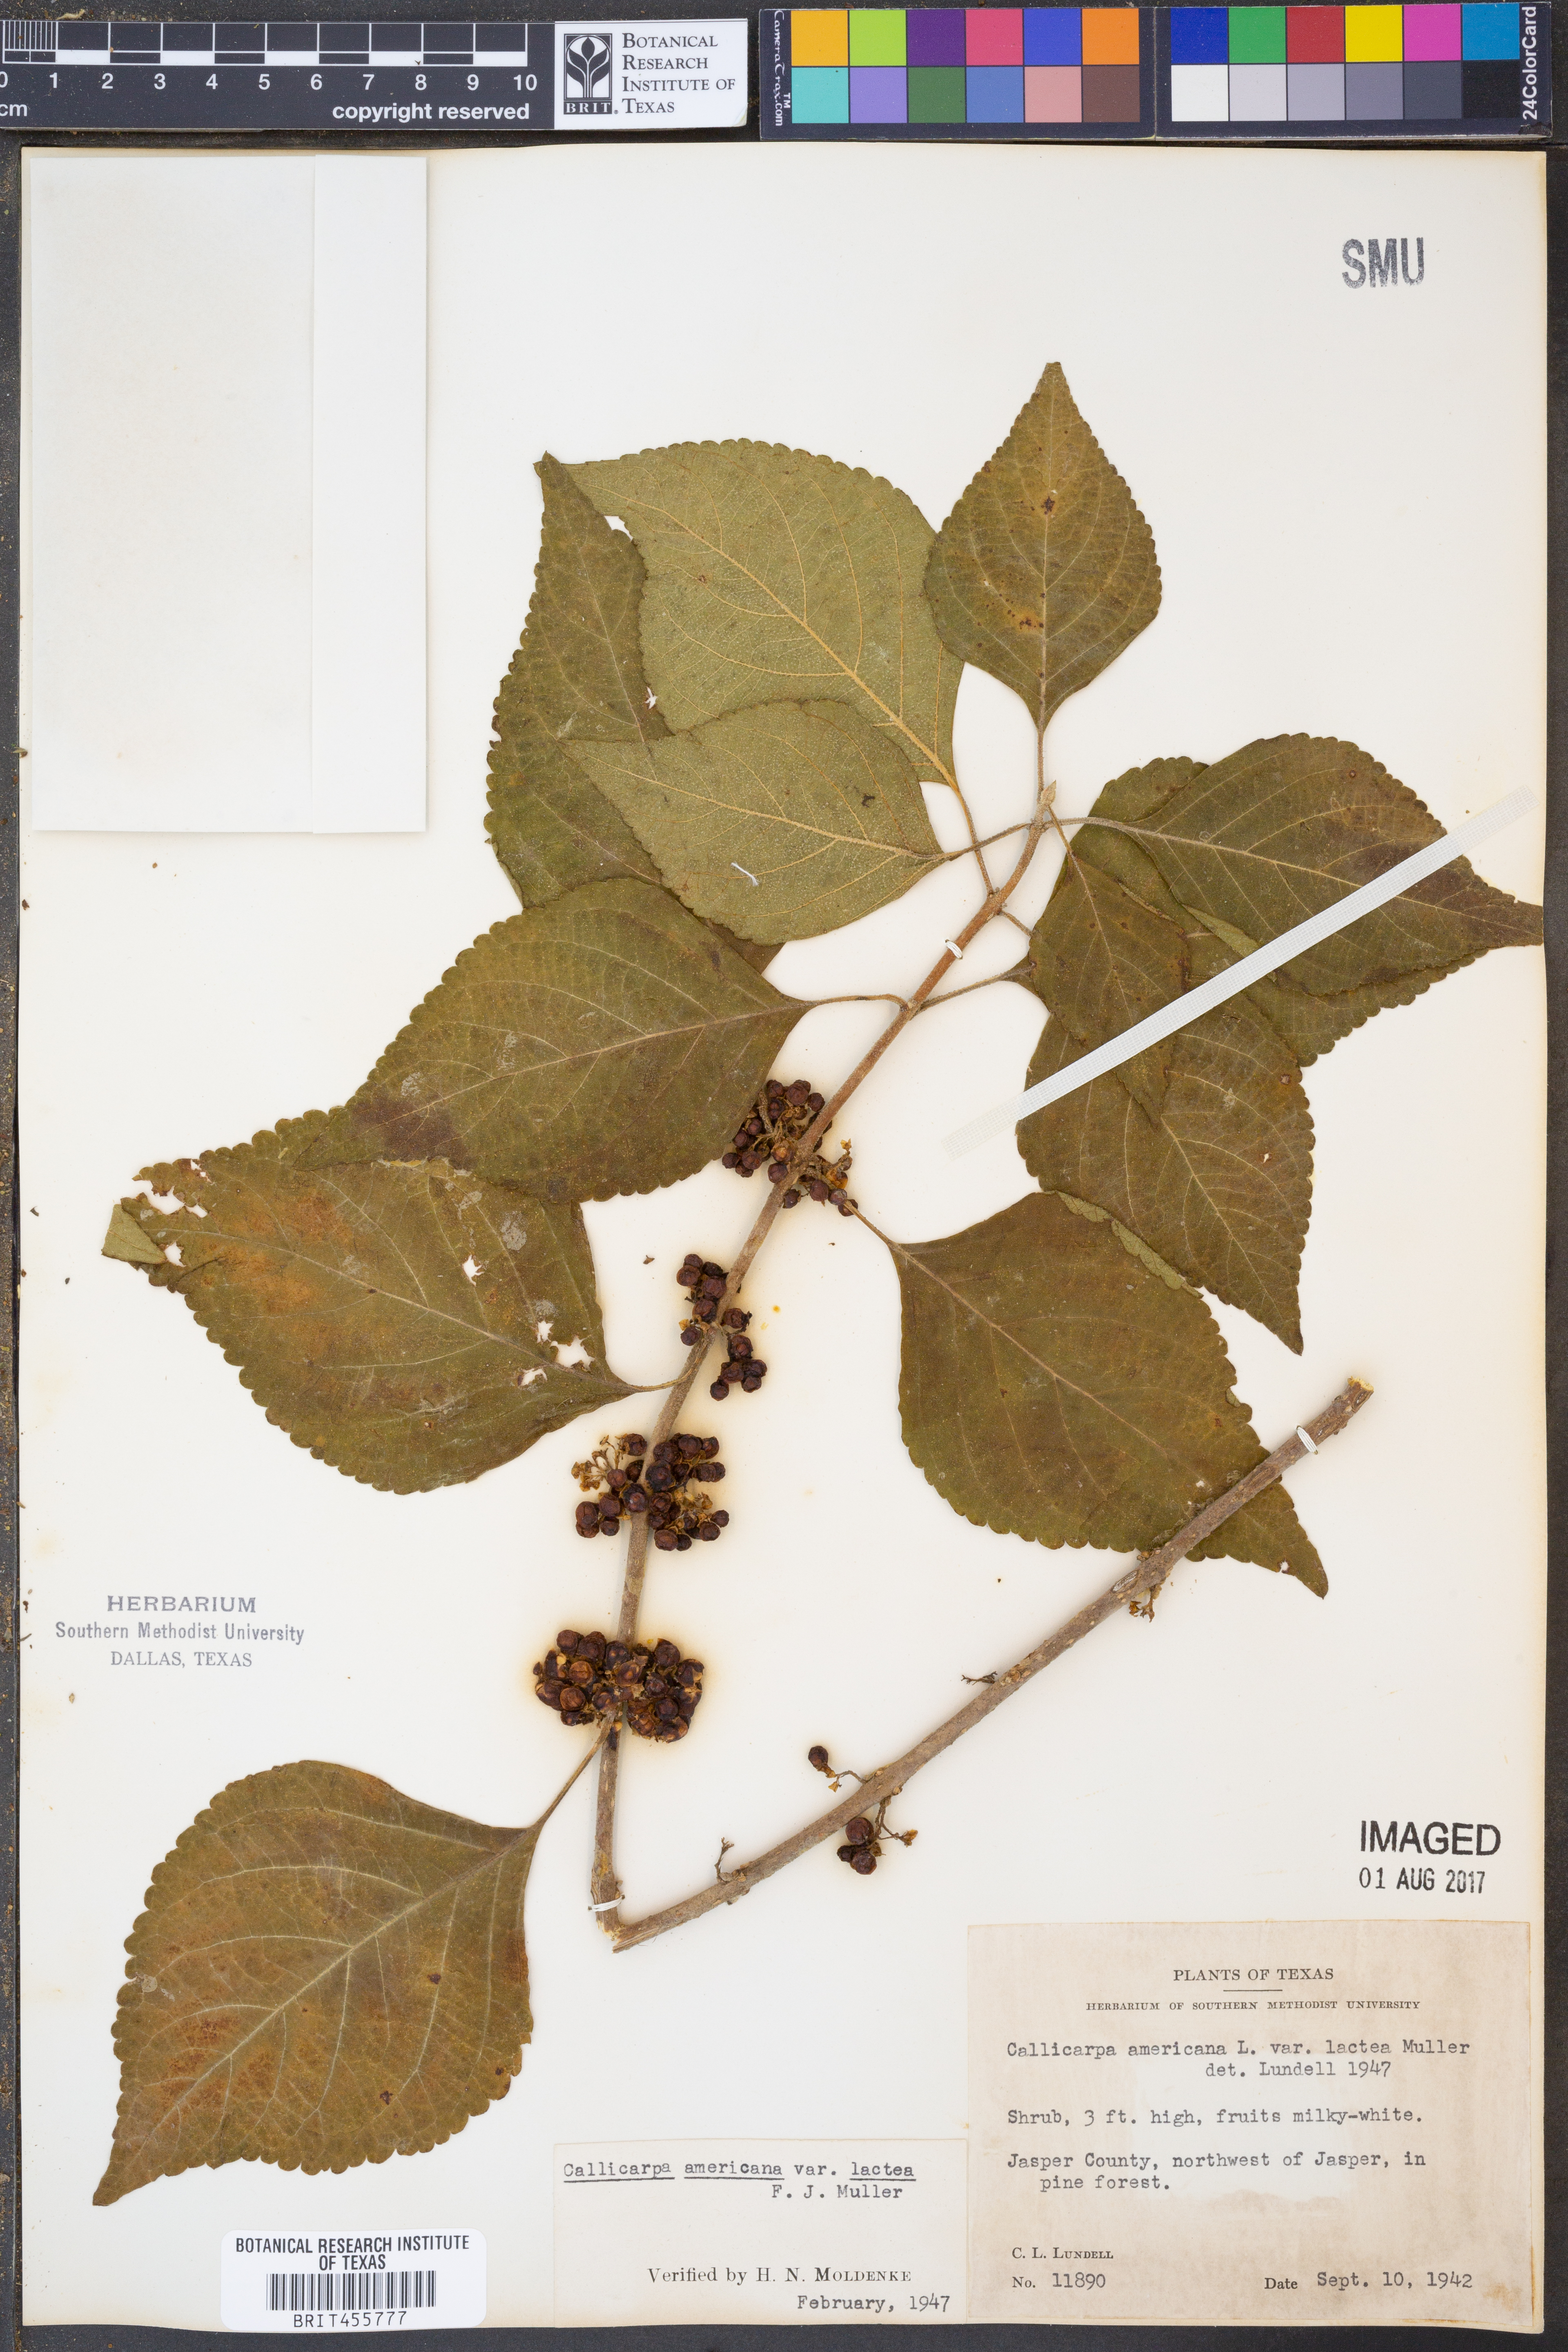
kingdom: Plantae
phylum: Tracheophyta
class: Magnoliopsida
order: Lamiales
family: Lamiaceae
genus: Callicarpa
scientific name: Callicarpa americana
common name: American beautyberry
